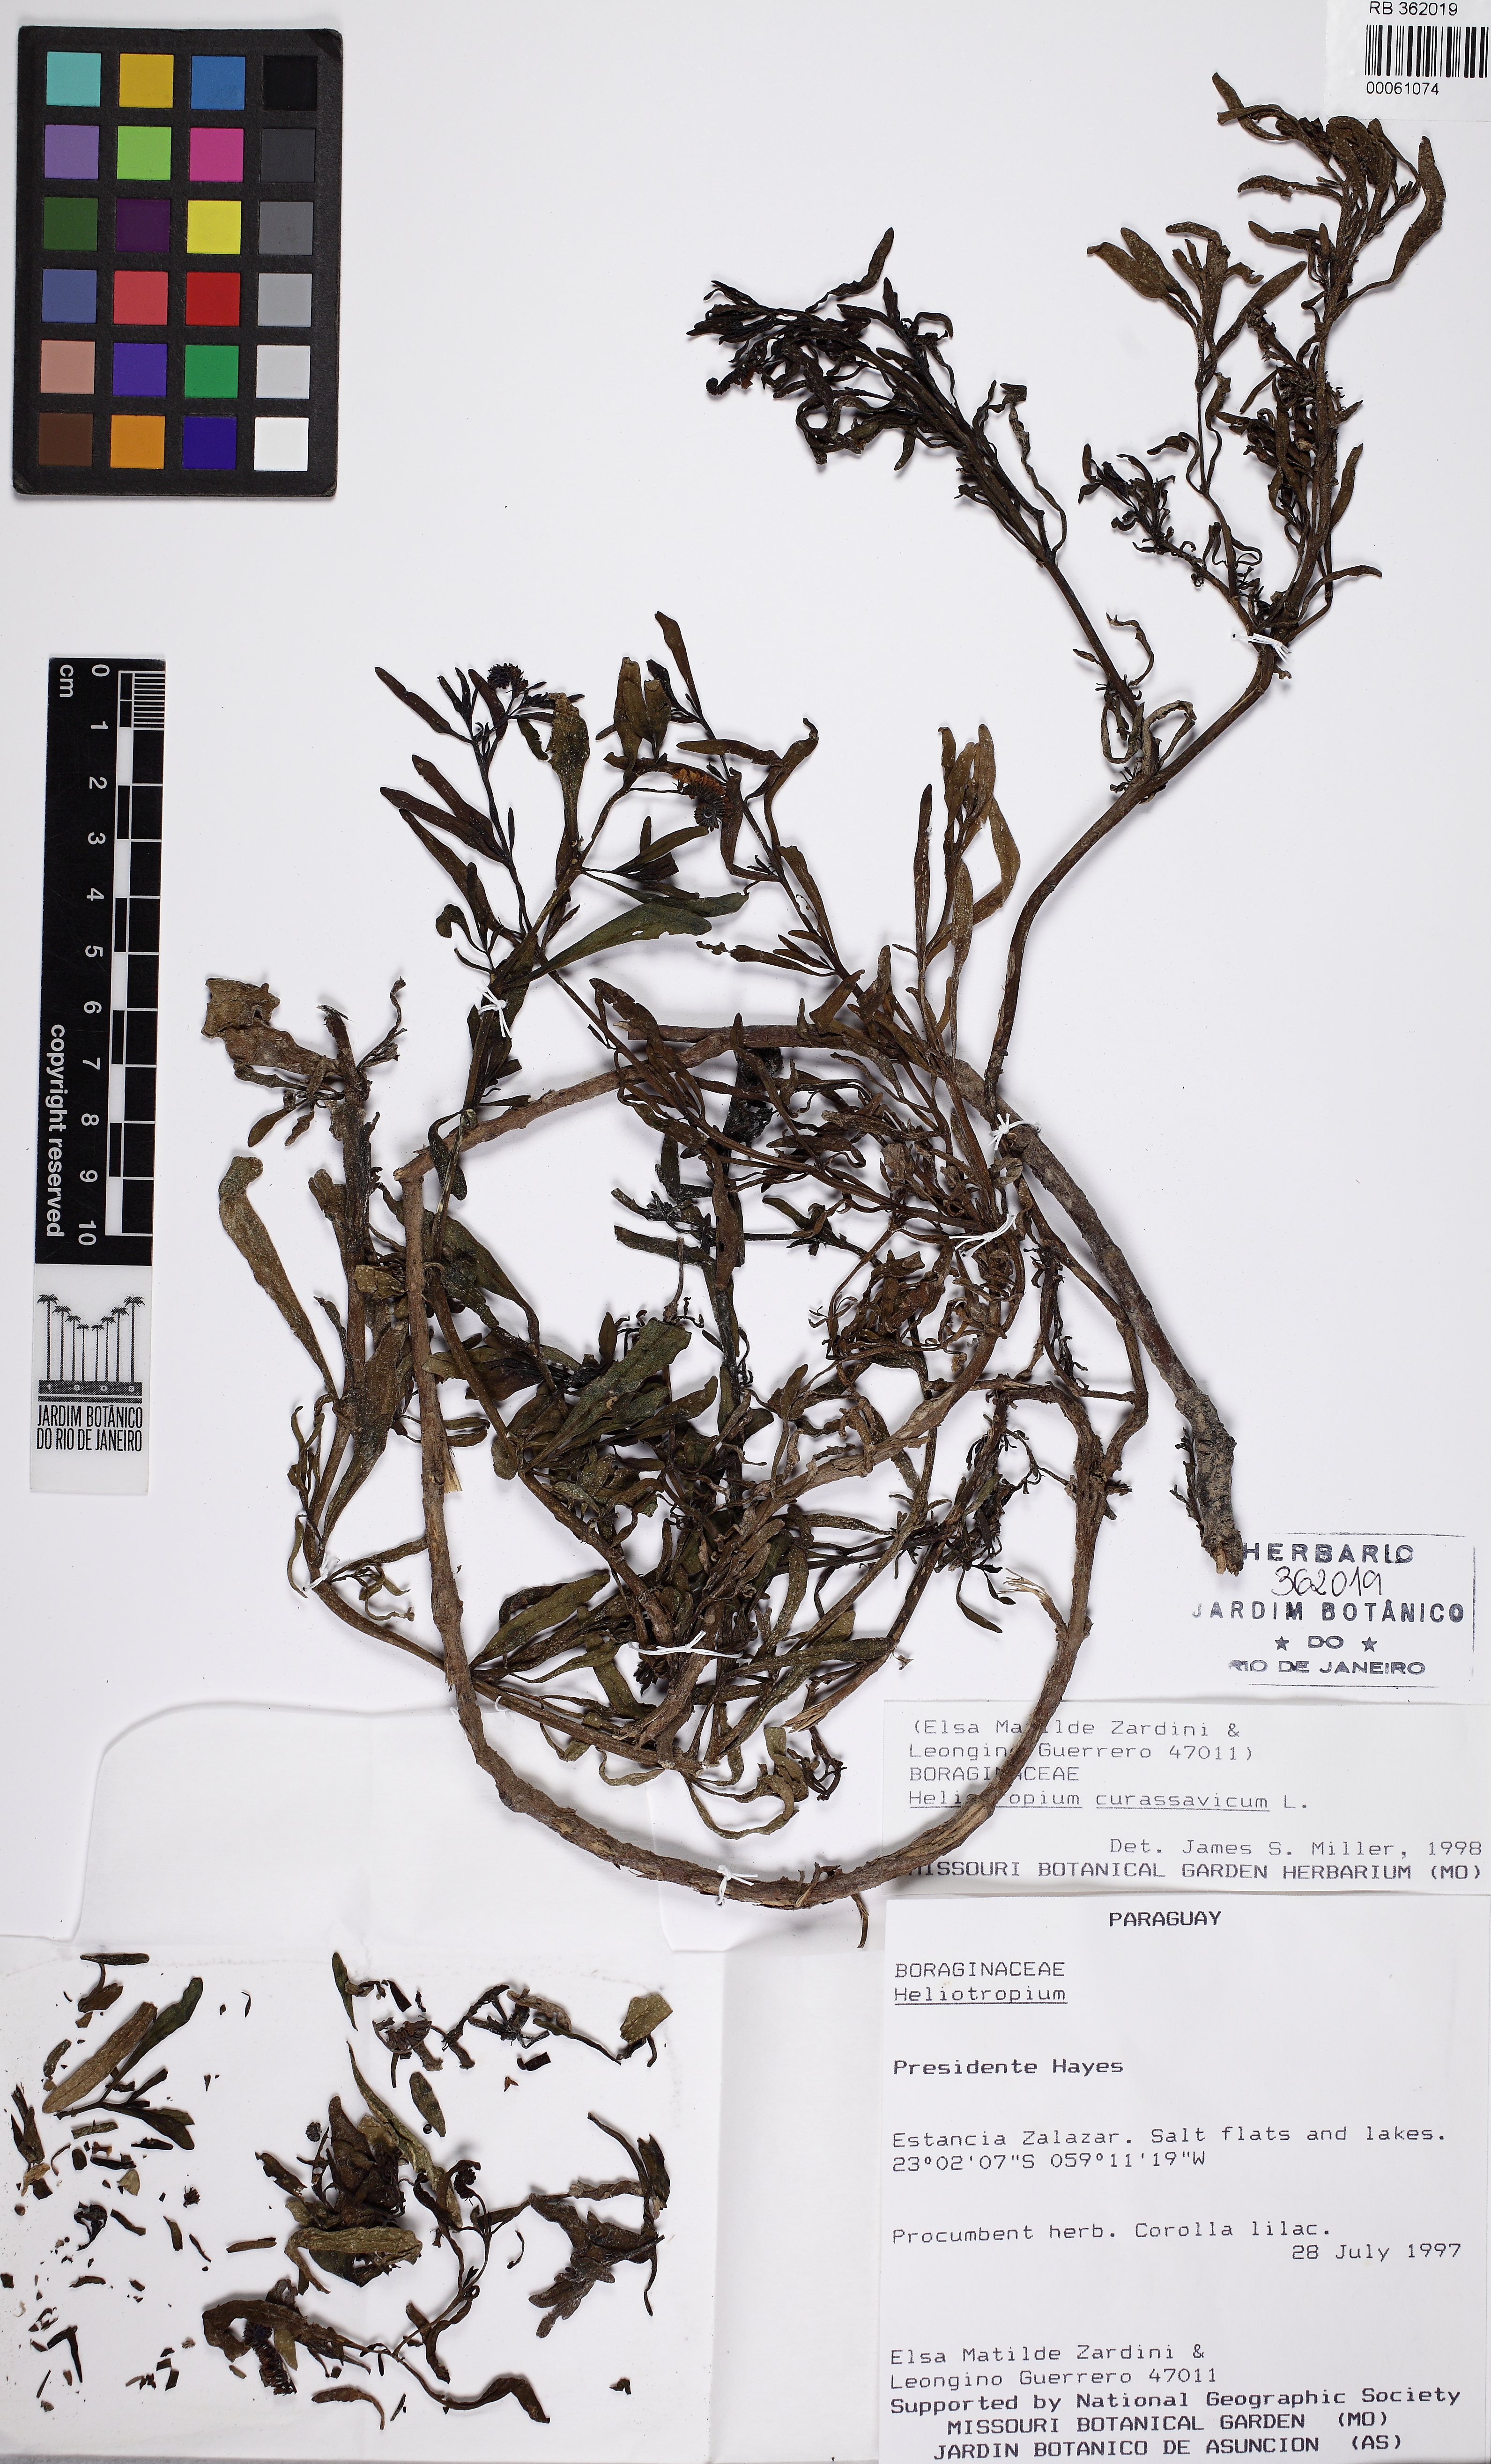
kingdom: Plantae
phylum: Tracheophyta
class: Magnoliopsida
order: Boraginales
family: Heliotropiaceae
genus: Heliotropium
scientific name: Heliotropium curassavicum
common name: Seaside heliotrope
